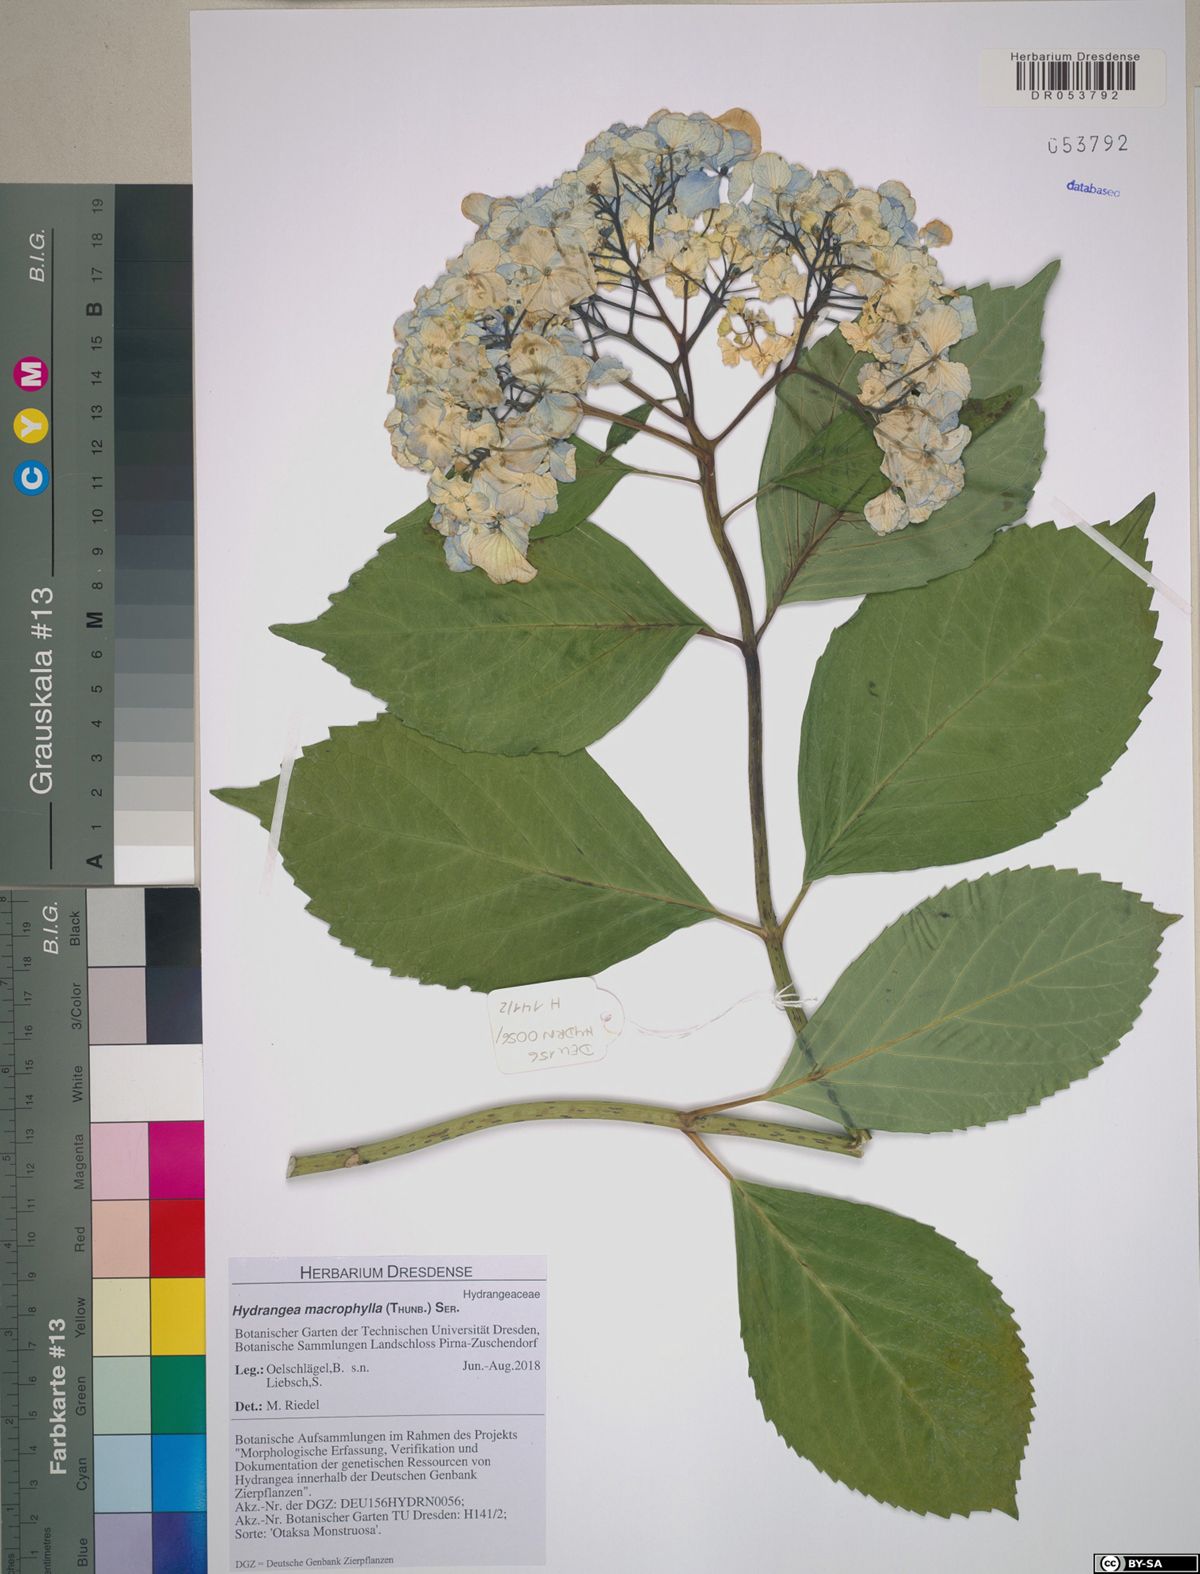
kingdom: Plantae
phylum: Tracheophyta
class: Magnoliopsida
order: Cornales
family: Hydrangeaceae
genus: Hydrangea
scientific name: Hydrangea macrophylla
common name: Hydrangea
